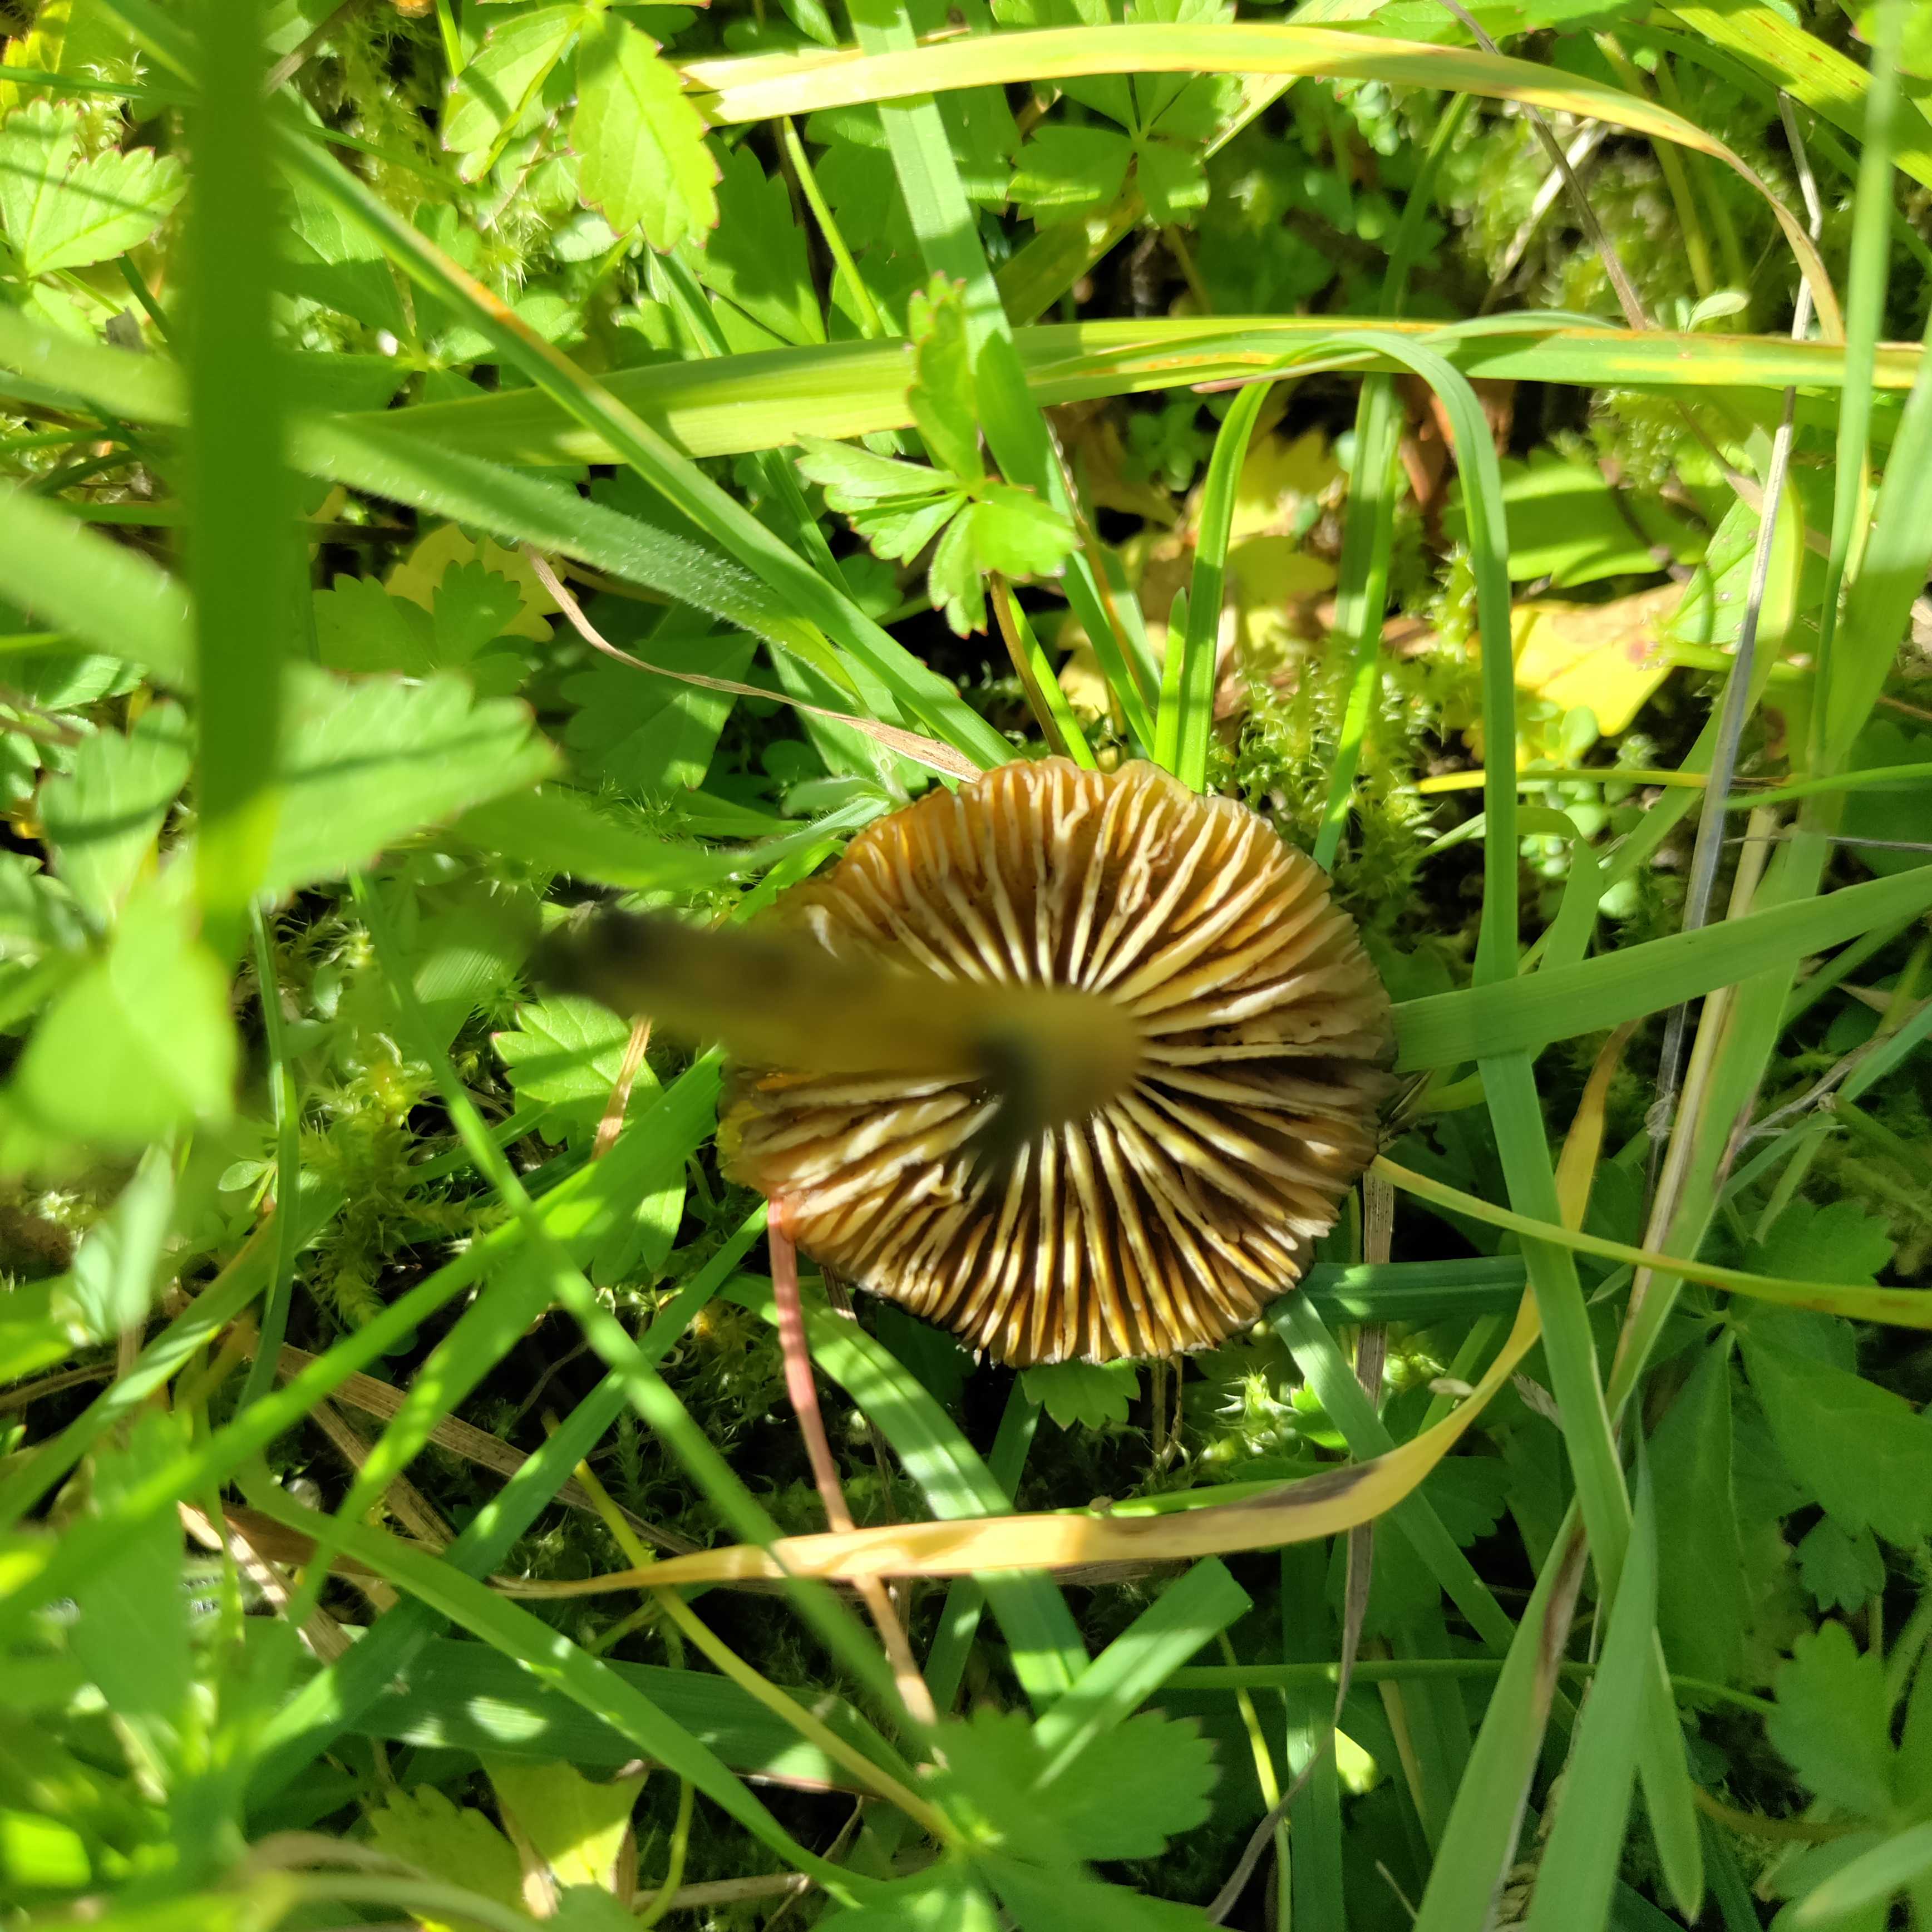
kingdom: Fungi
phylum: Basidiomycota
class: Agaricomycetes
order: Agaricales
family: Hygrophoraceae
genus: Hygrocybe
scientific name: Hygrocybe conica
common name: kegle-vokshat
